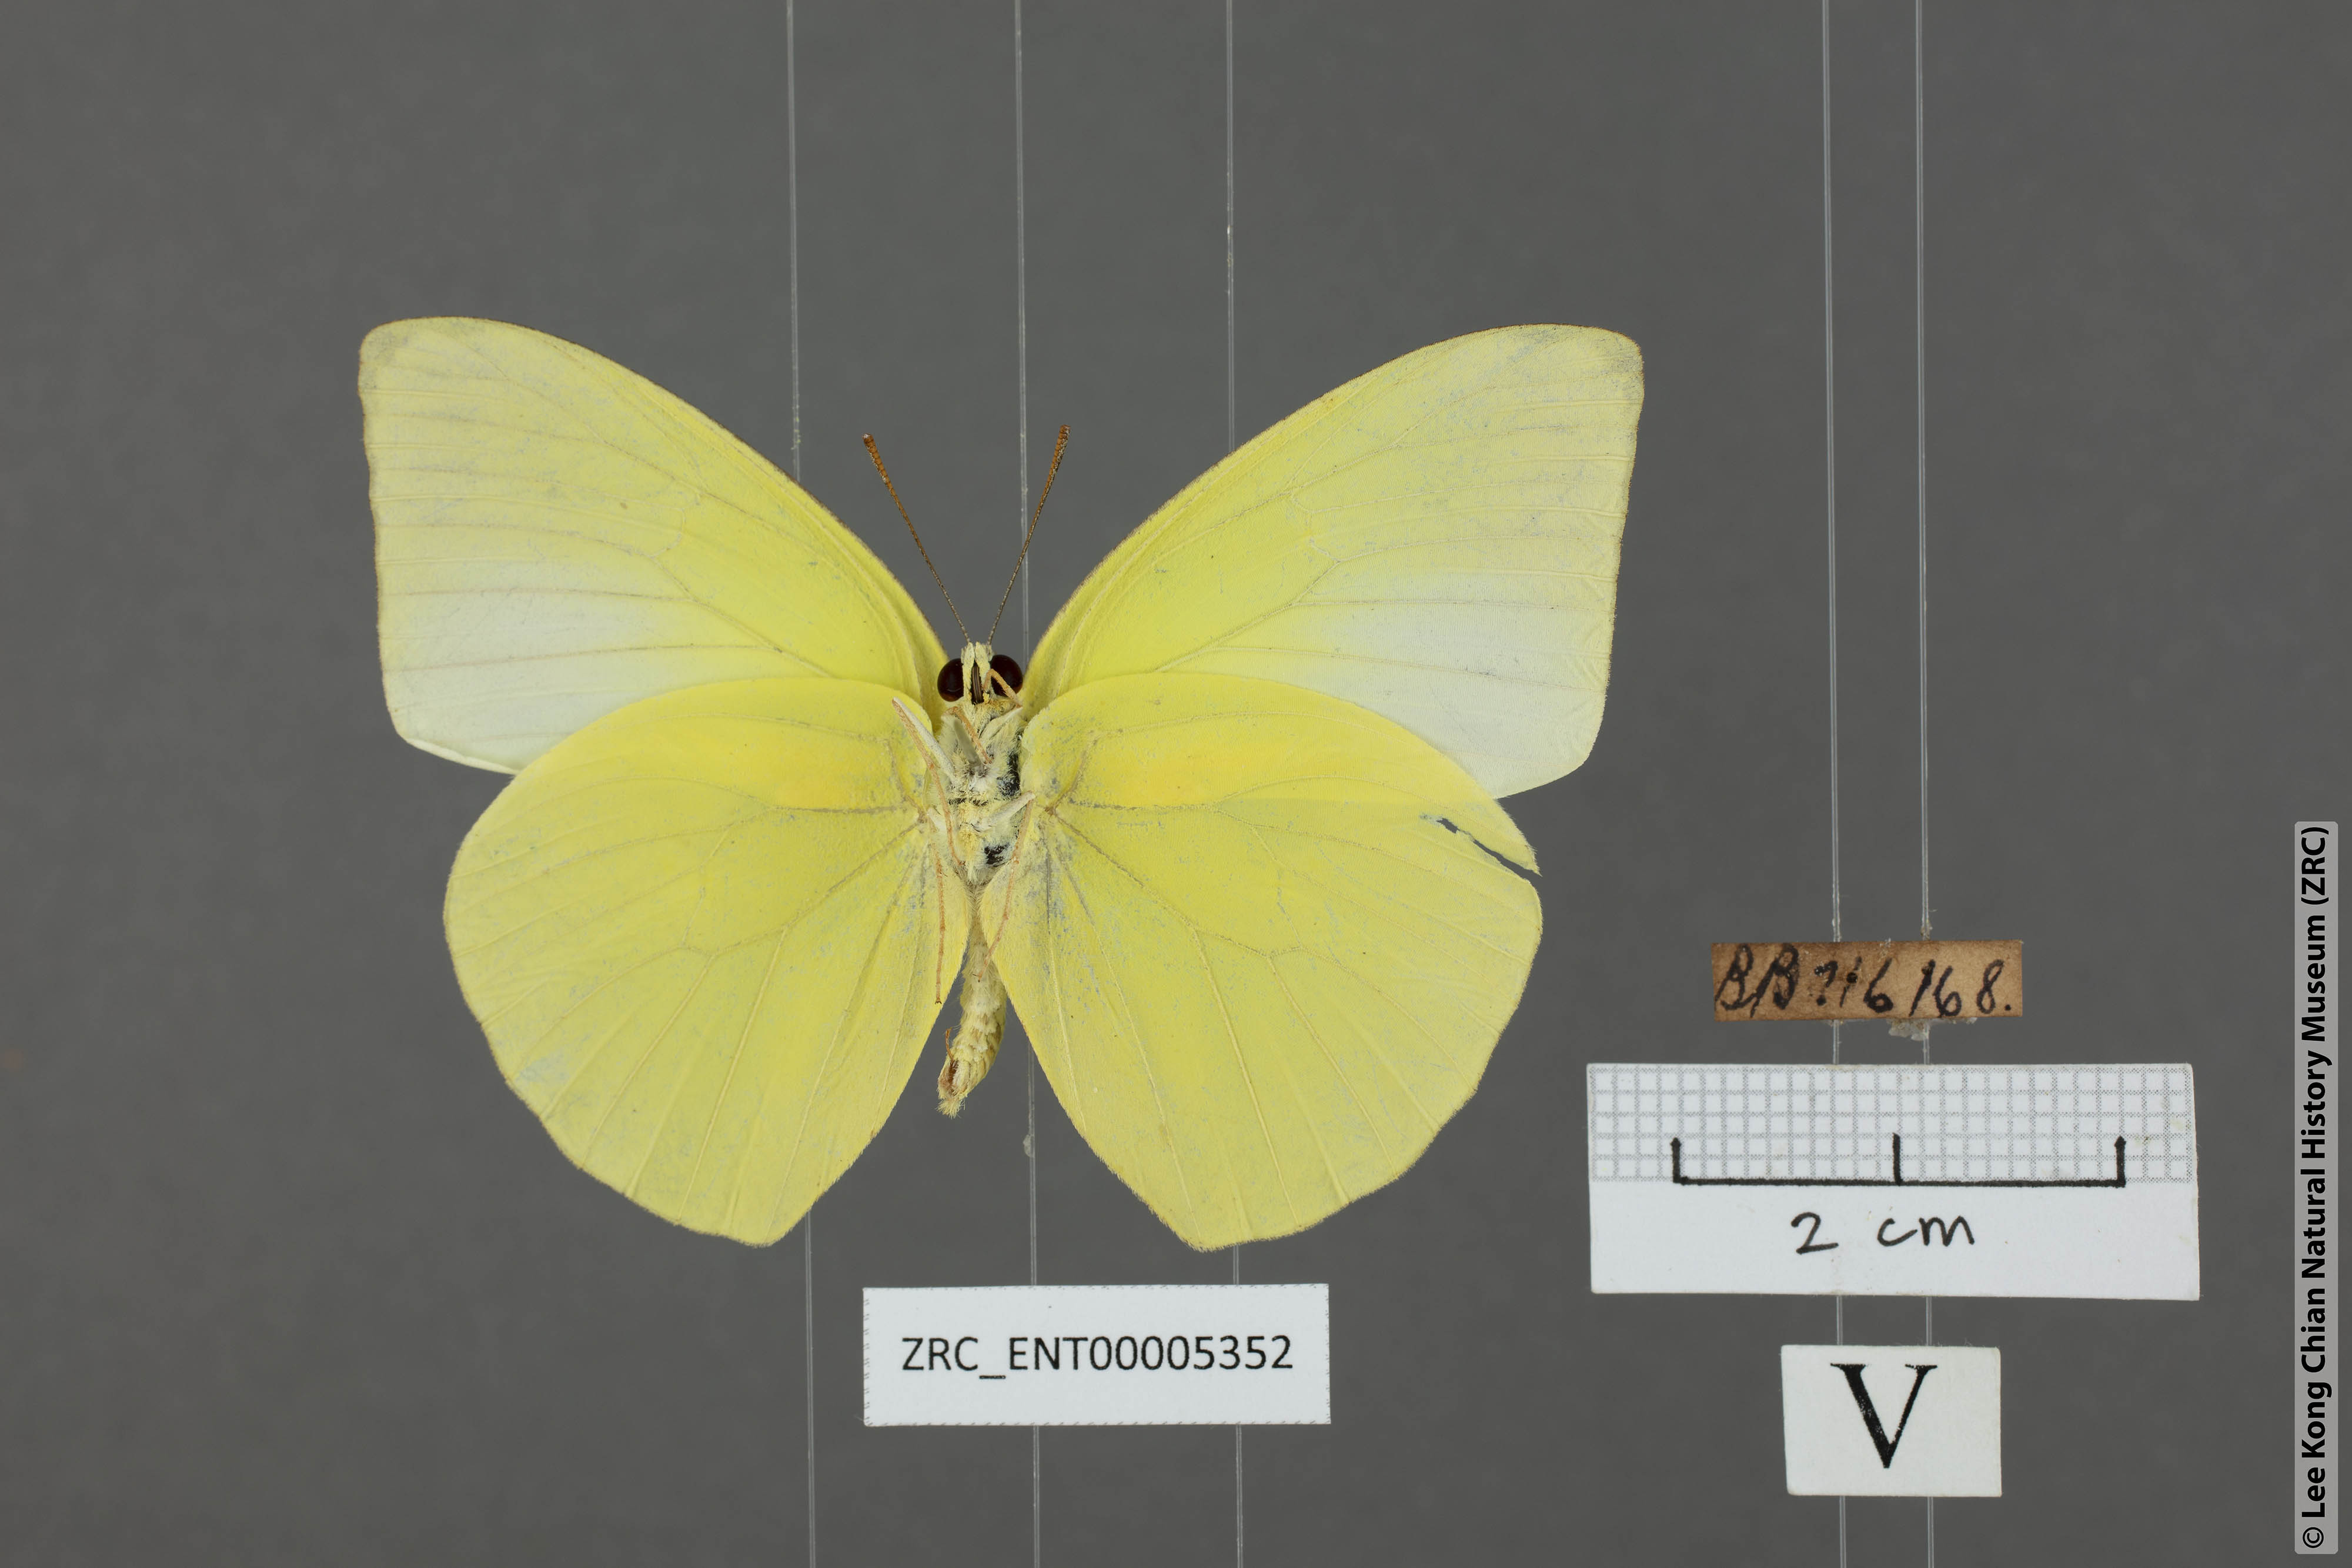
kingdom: Animalia
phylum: Arthropoda
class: Insecta
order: Lepidoptera
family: Pieridae
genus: Catopsilia
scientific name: Catopsilia pomona
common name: Common emigrant
